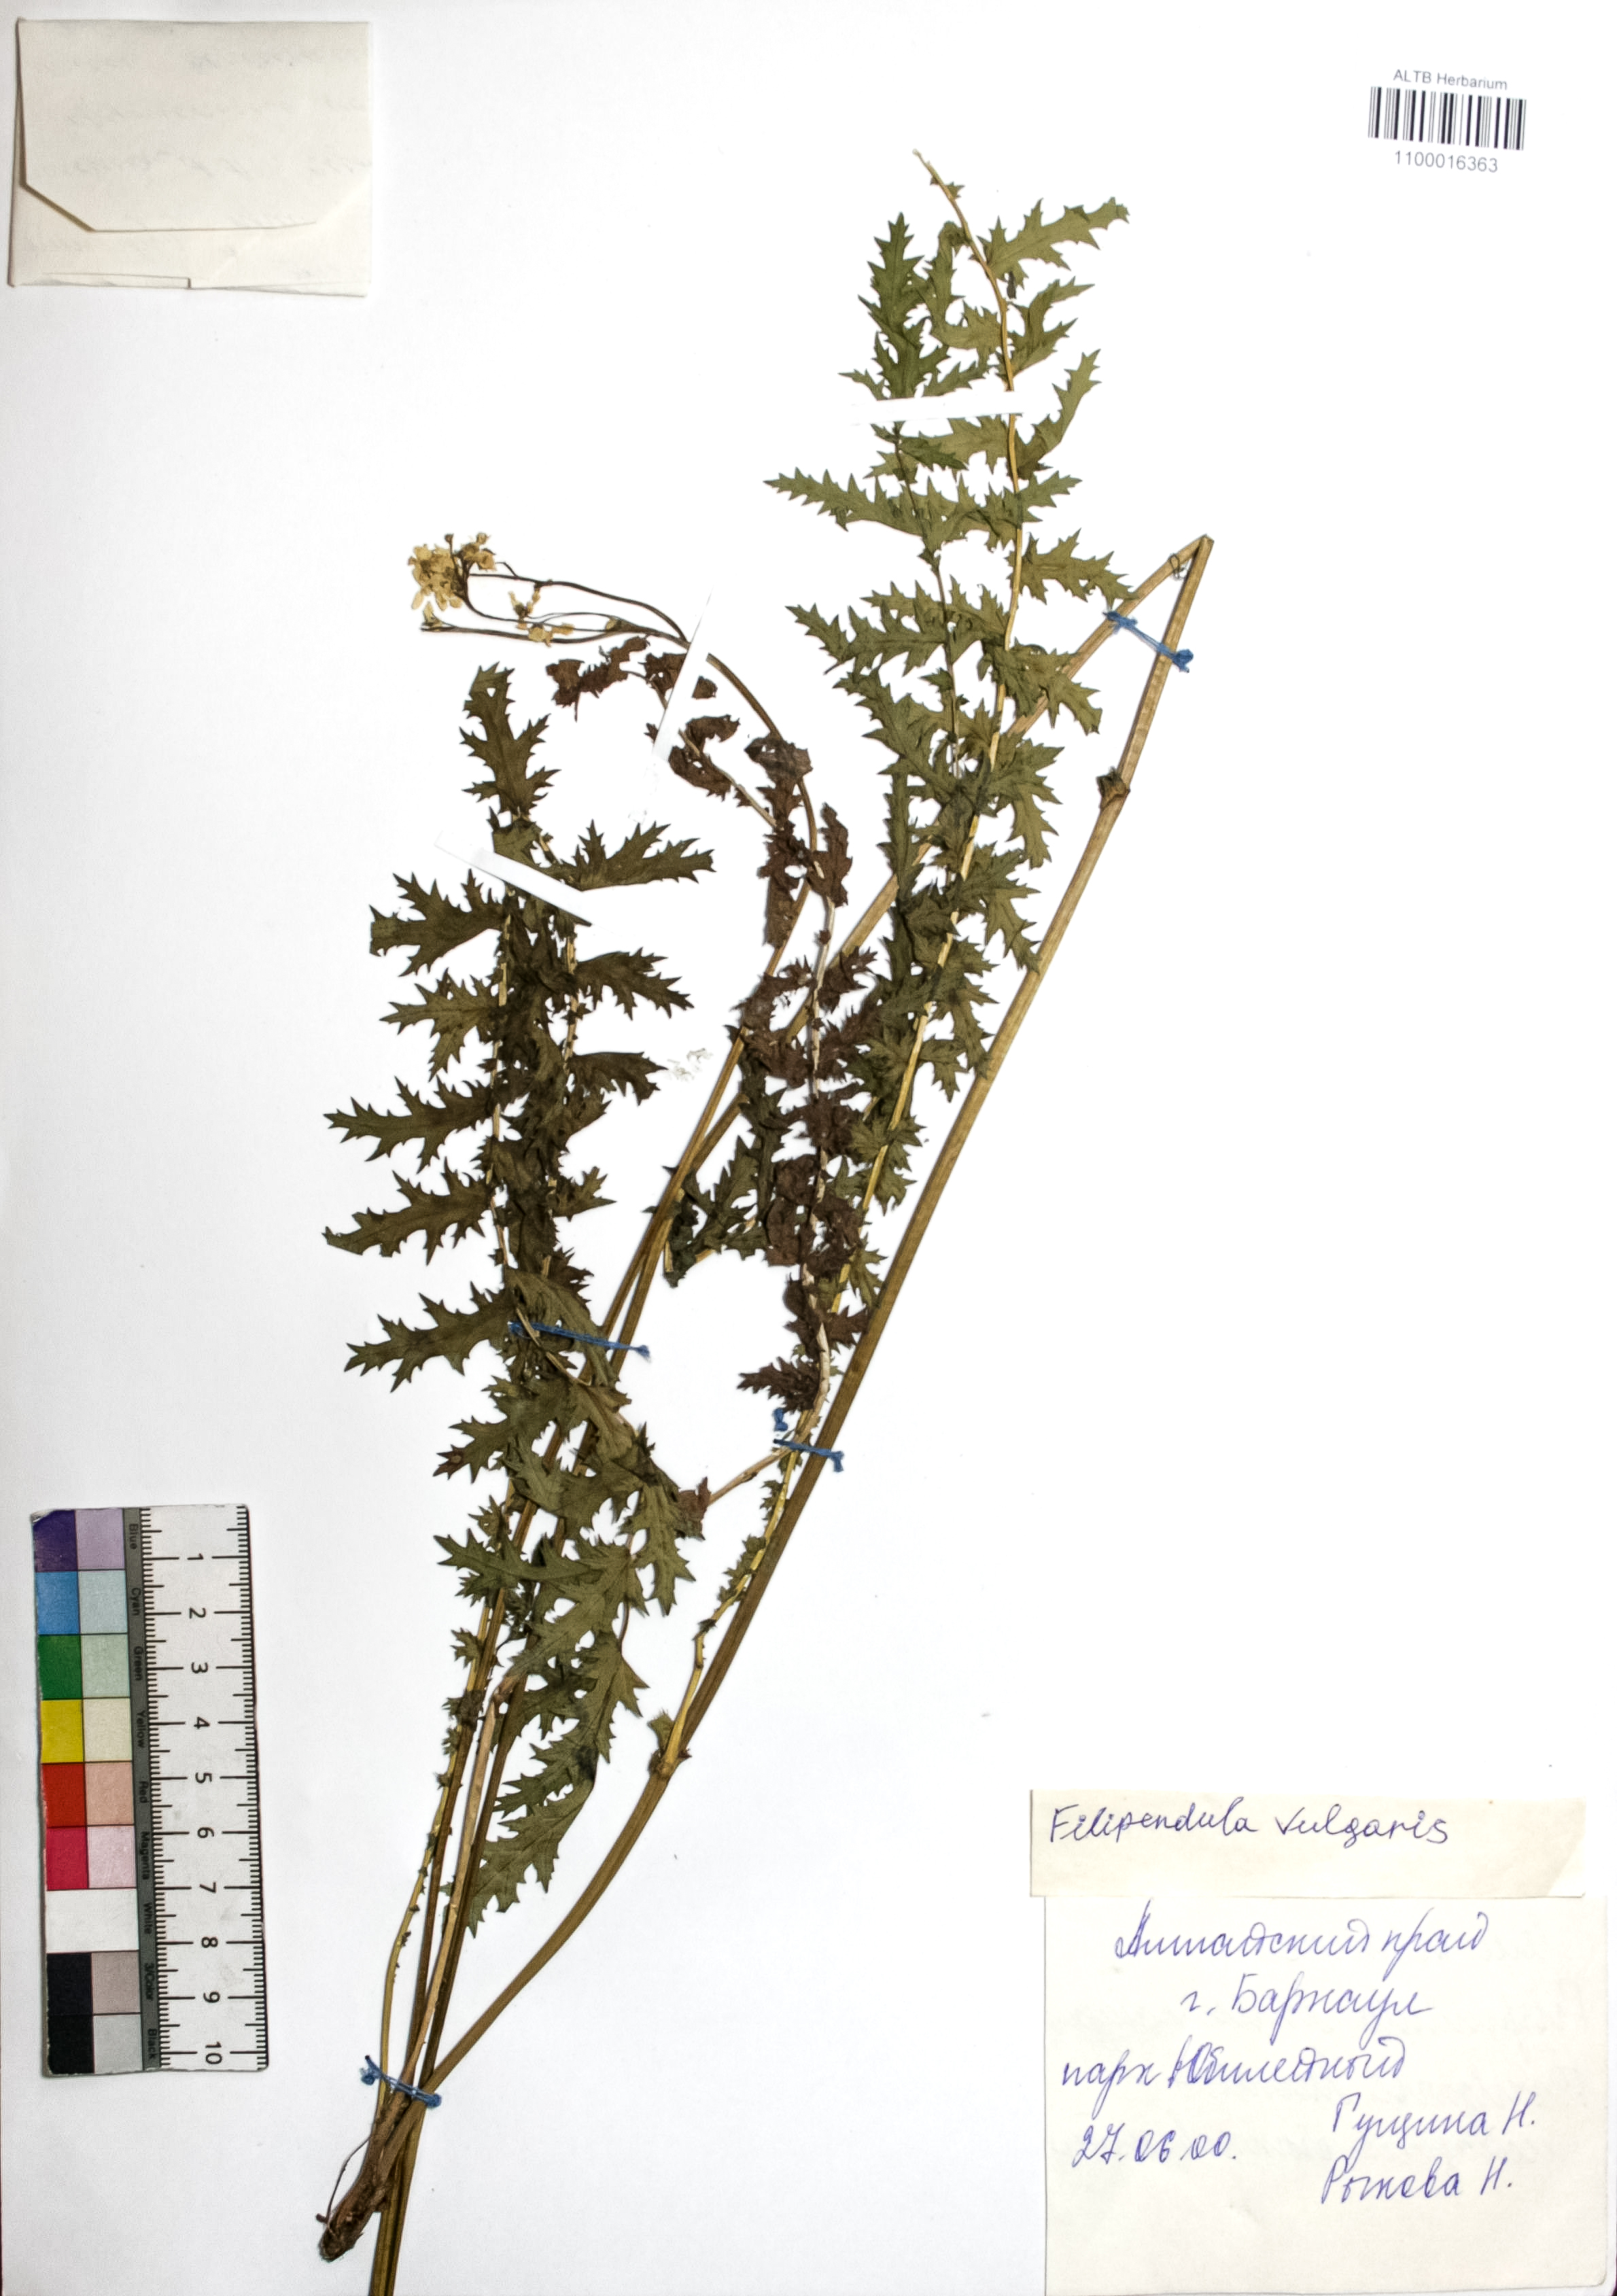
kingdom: Plantae
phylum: Tracheophyta
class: Magnoliopsida
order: Rosales
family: Rosaceae
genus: Filipendula
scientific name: Filipendula vulgaris
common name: Dropwort
